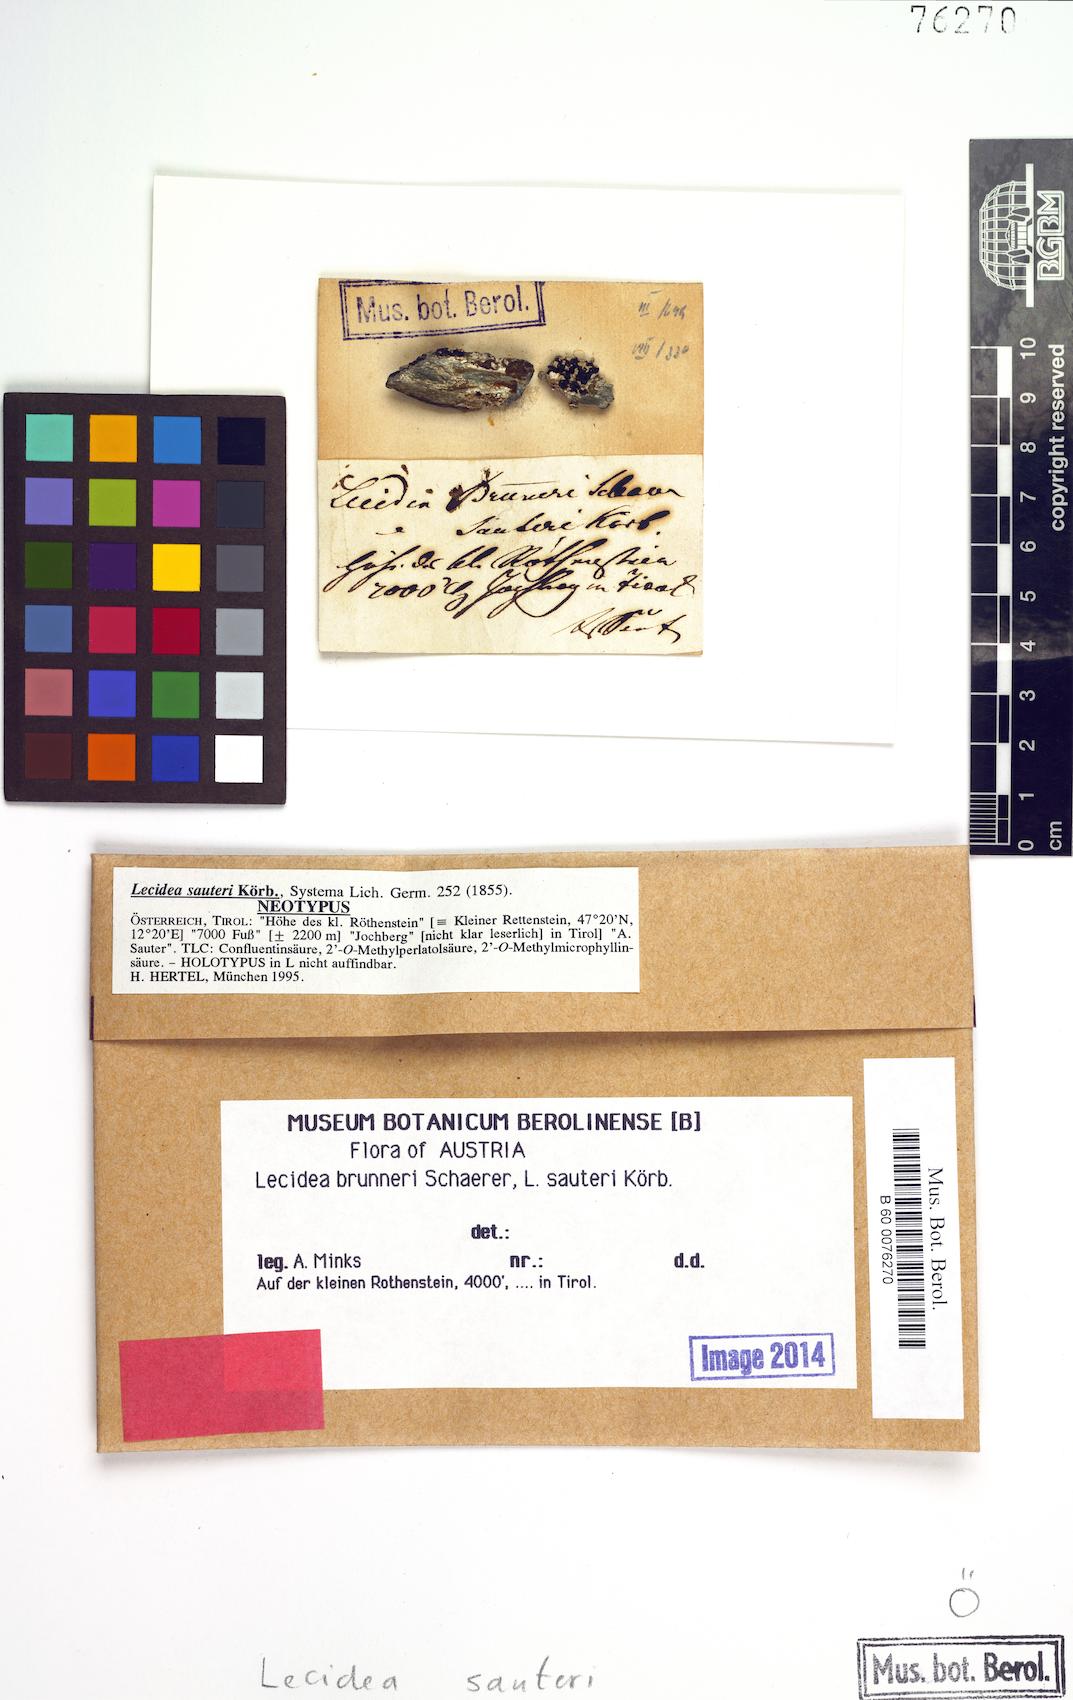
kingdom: Fungi
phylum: Ascomycota
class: Lecanoromycetes
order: Lecideales
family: Lecideaceae
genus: Lecidea
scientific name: Lecidea sauteri
